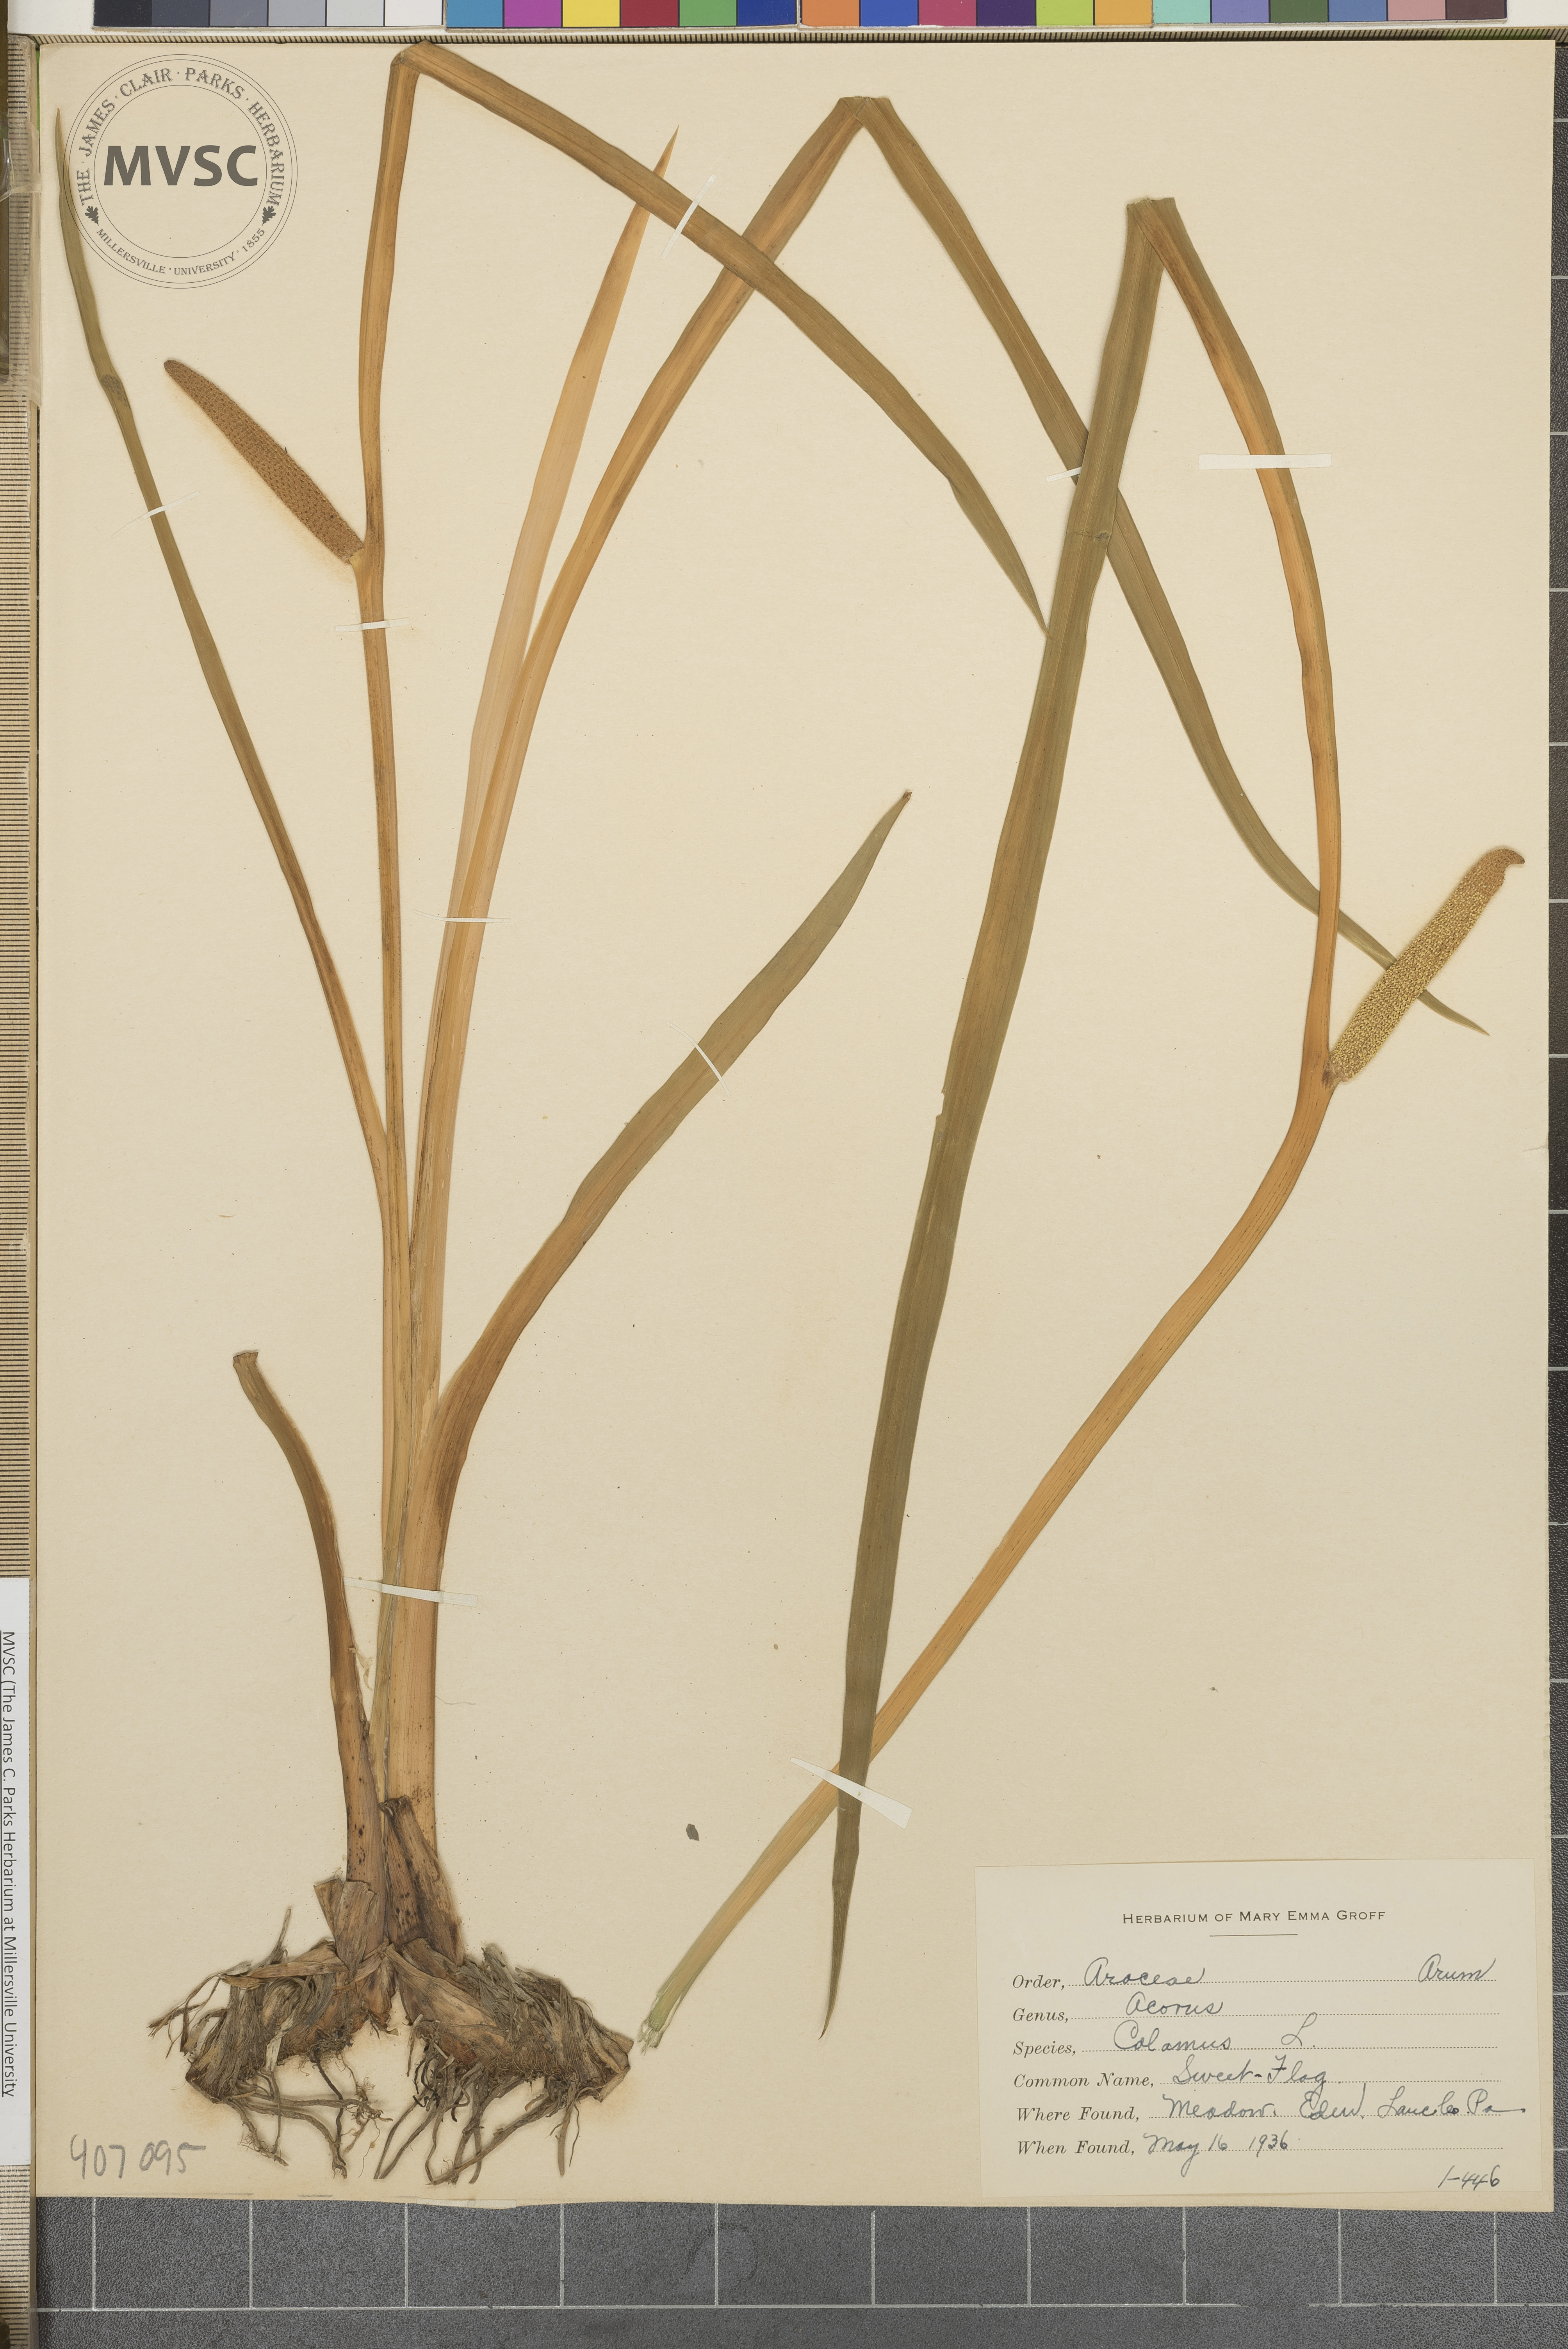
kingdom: Plantae
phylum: Tracheophyta
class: Liliopsida
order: Acorales
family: Acoraceae
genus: Acorus
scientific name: Acorus calamus
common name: Sweet-flag
